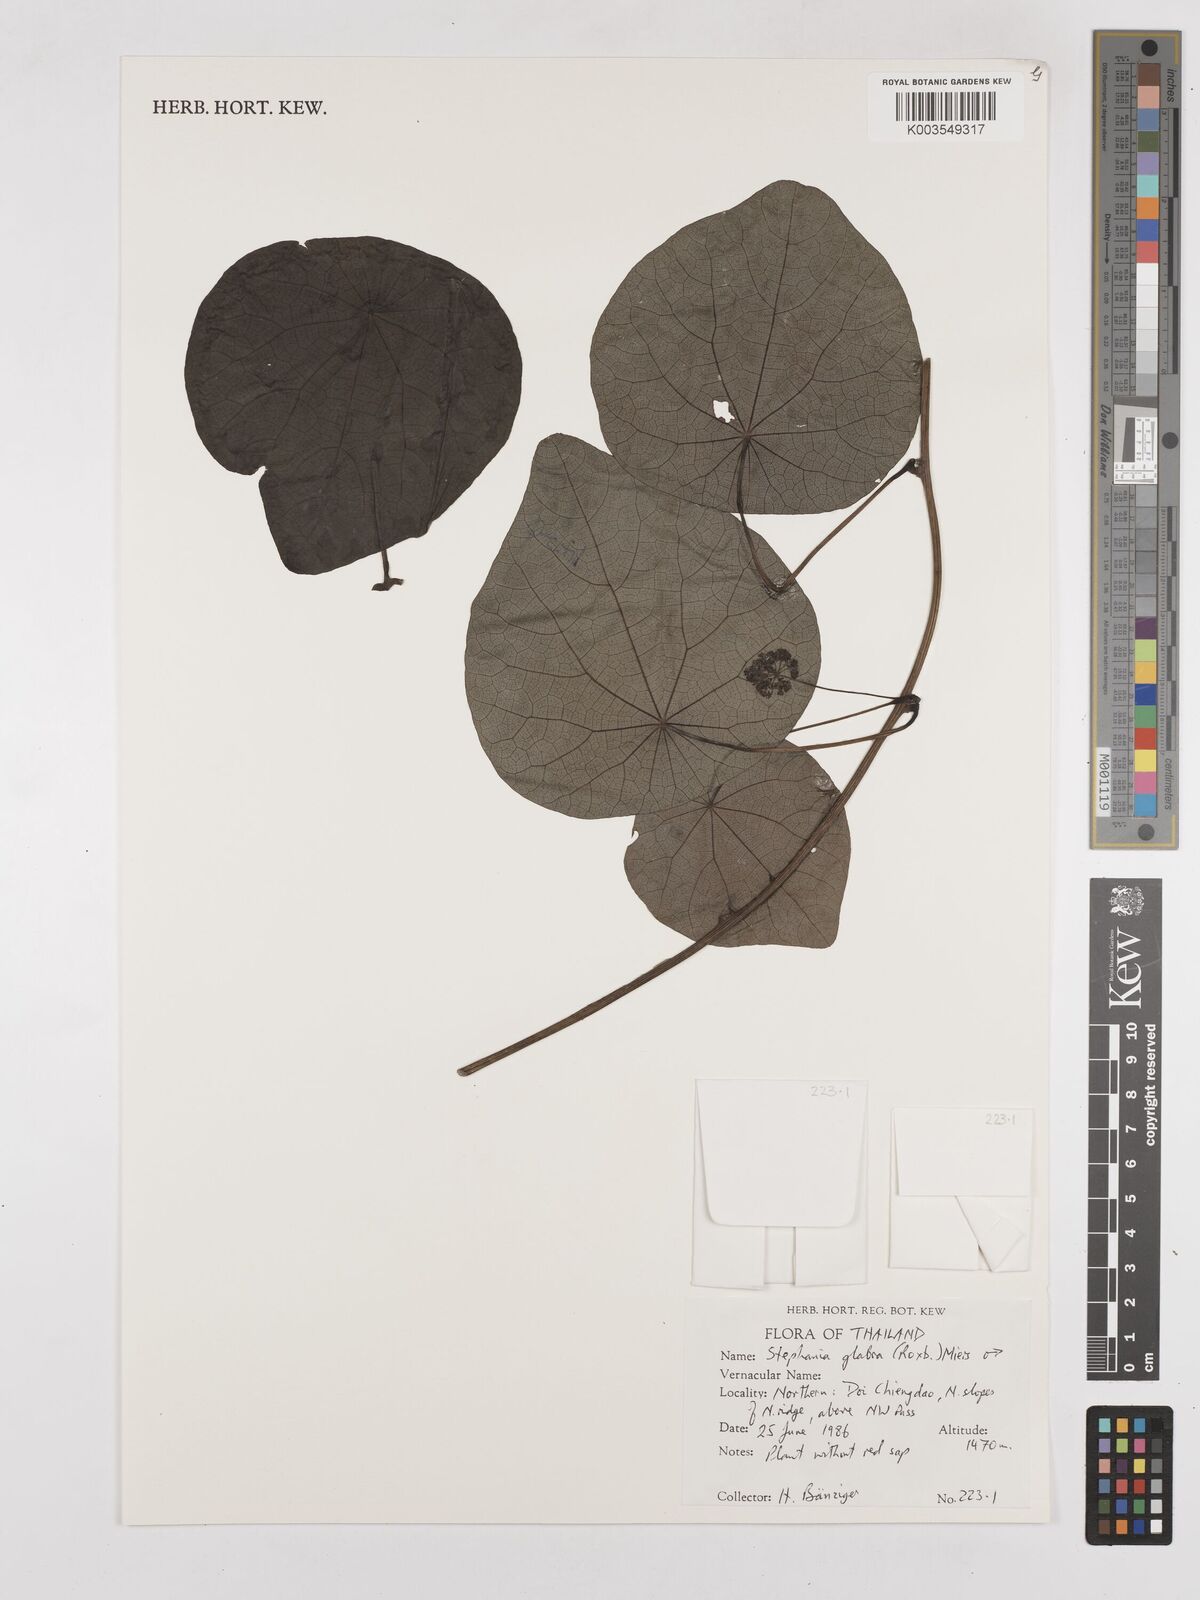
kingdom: Plantae
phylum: Tracheophyta
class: Magnoliopsida
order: Ranunculales
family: Menispermaceae
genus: Stephania
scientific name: Stephania rotunda
